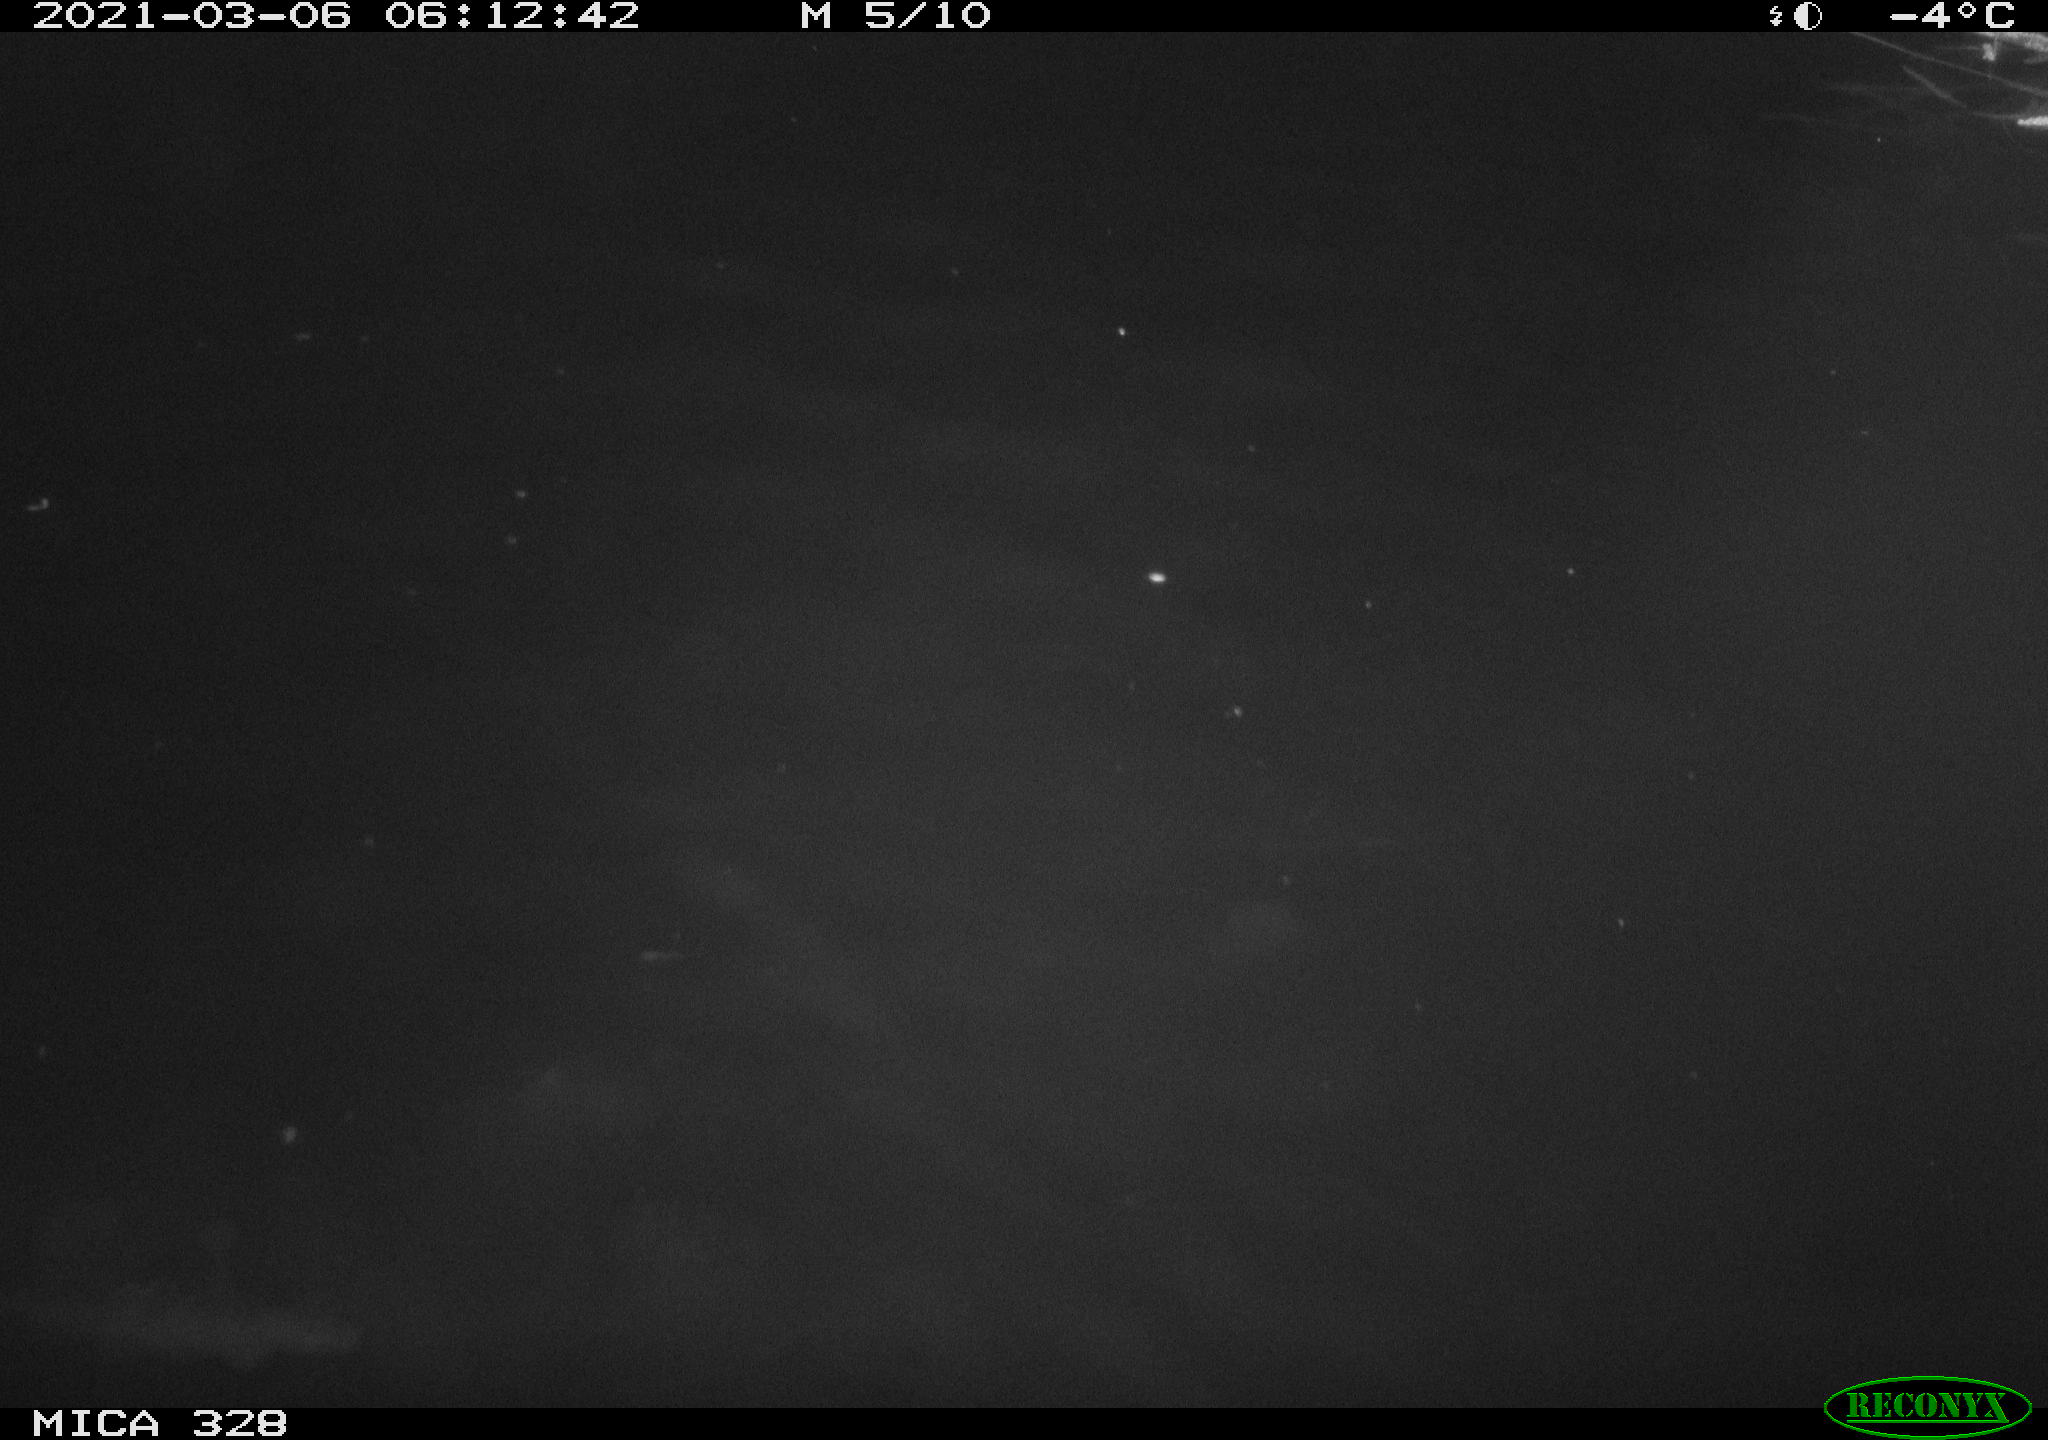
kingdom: Animalia
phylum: Chordata
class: Aves
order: Anseriformes
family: Anatidae
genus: Anas
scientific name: Anas
